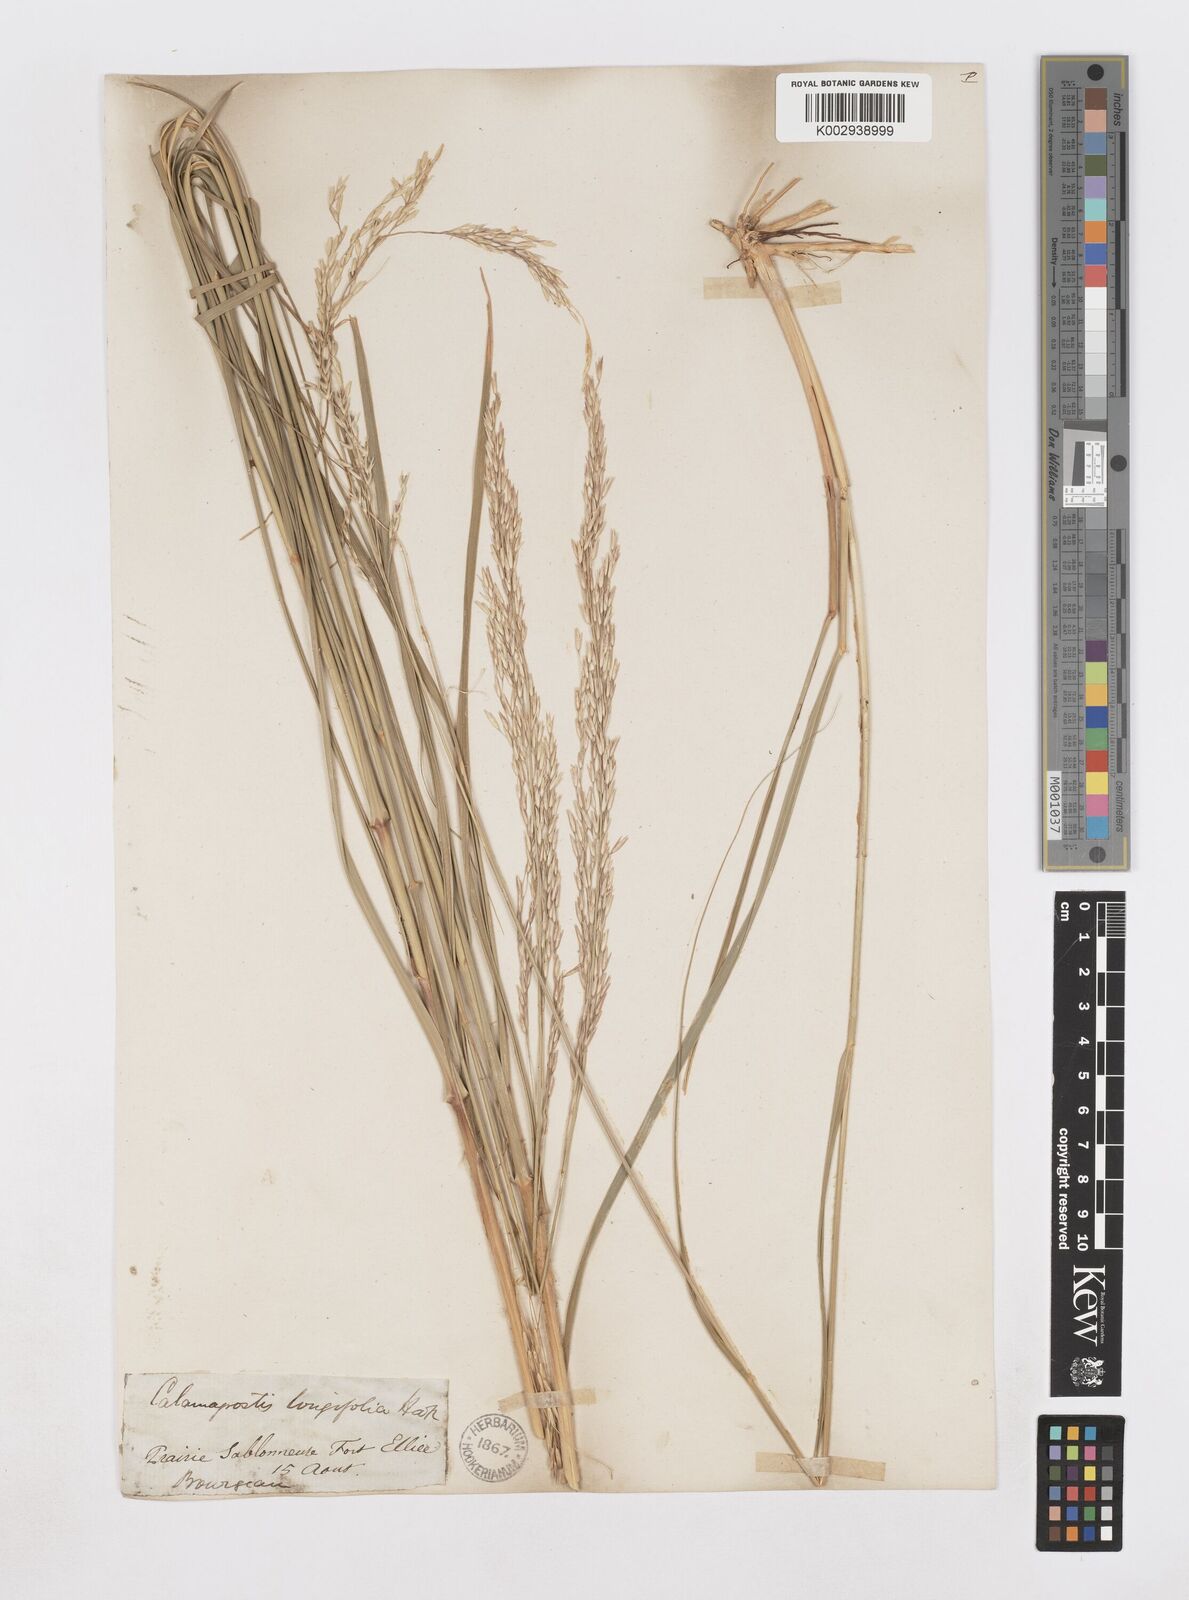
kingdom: Plantae
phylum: Tracheophyta
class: Liliopsida
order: Poales
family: Poaceae
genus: Sporobolus
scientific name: Sporobolus rigidus
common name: Prairie sandreed
